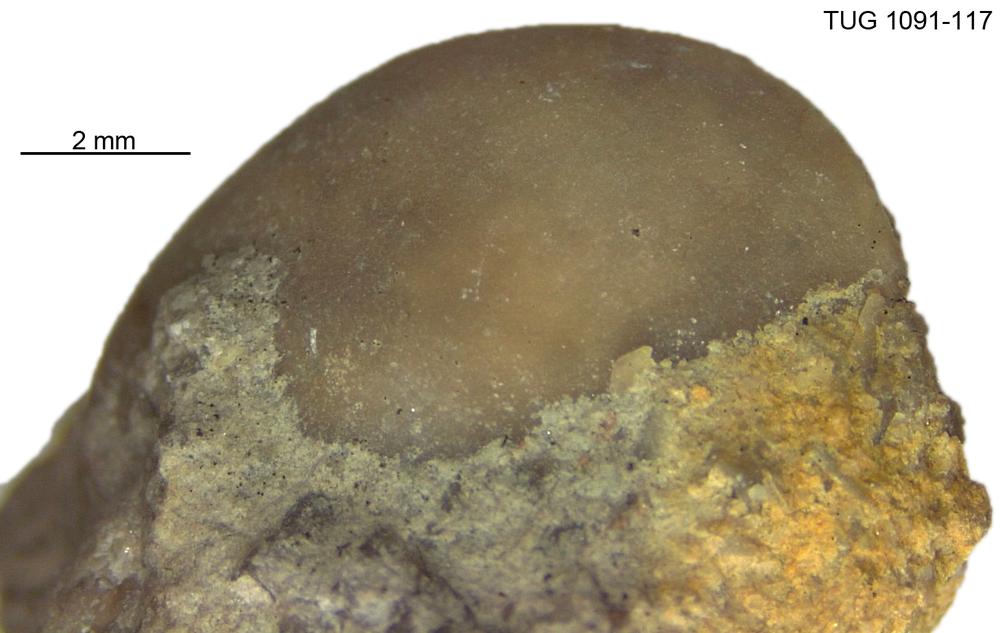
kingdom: Animalia
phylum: Arthropoda
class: Ostracoda
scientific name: Ostracoda
